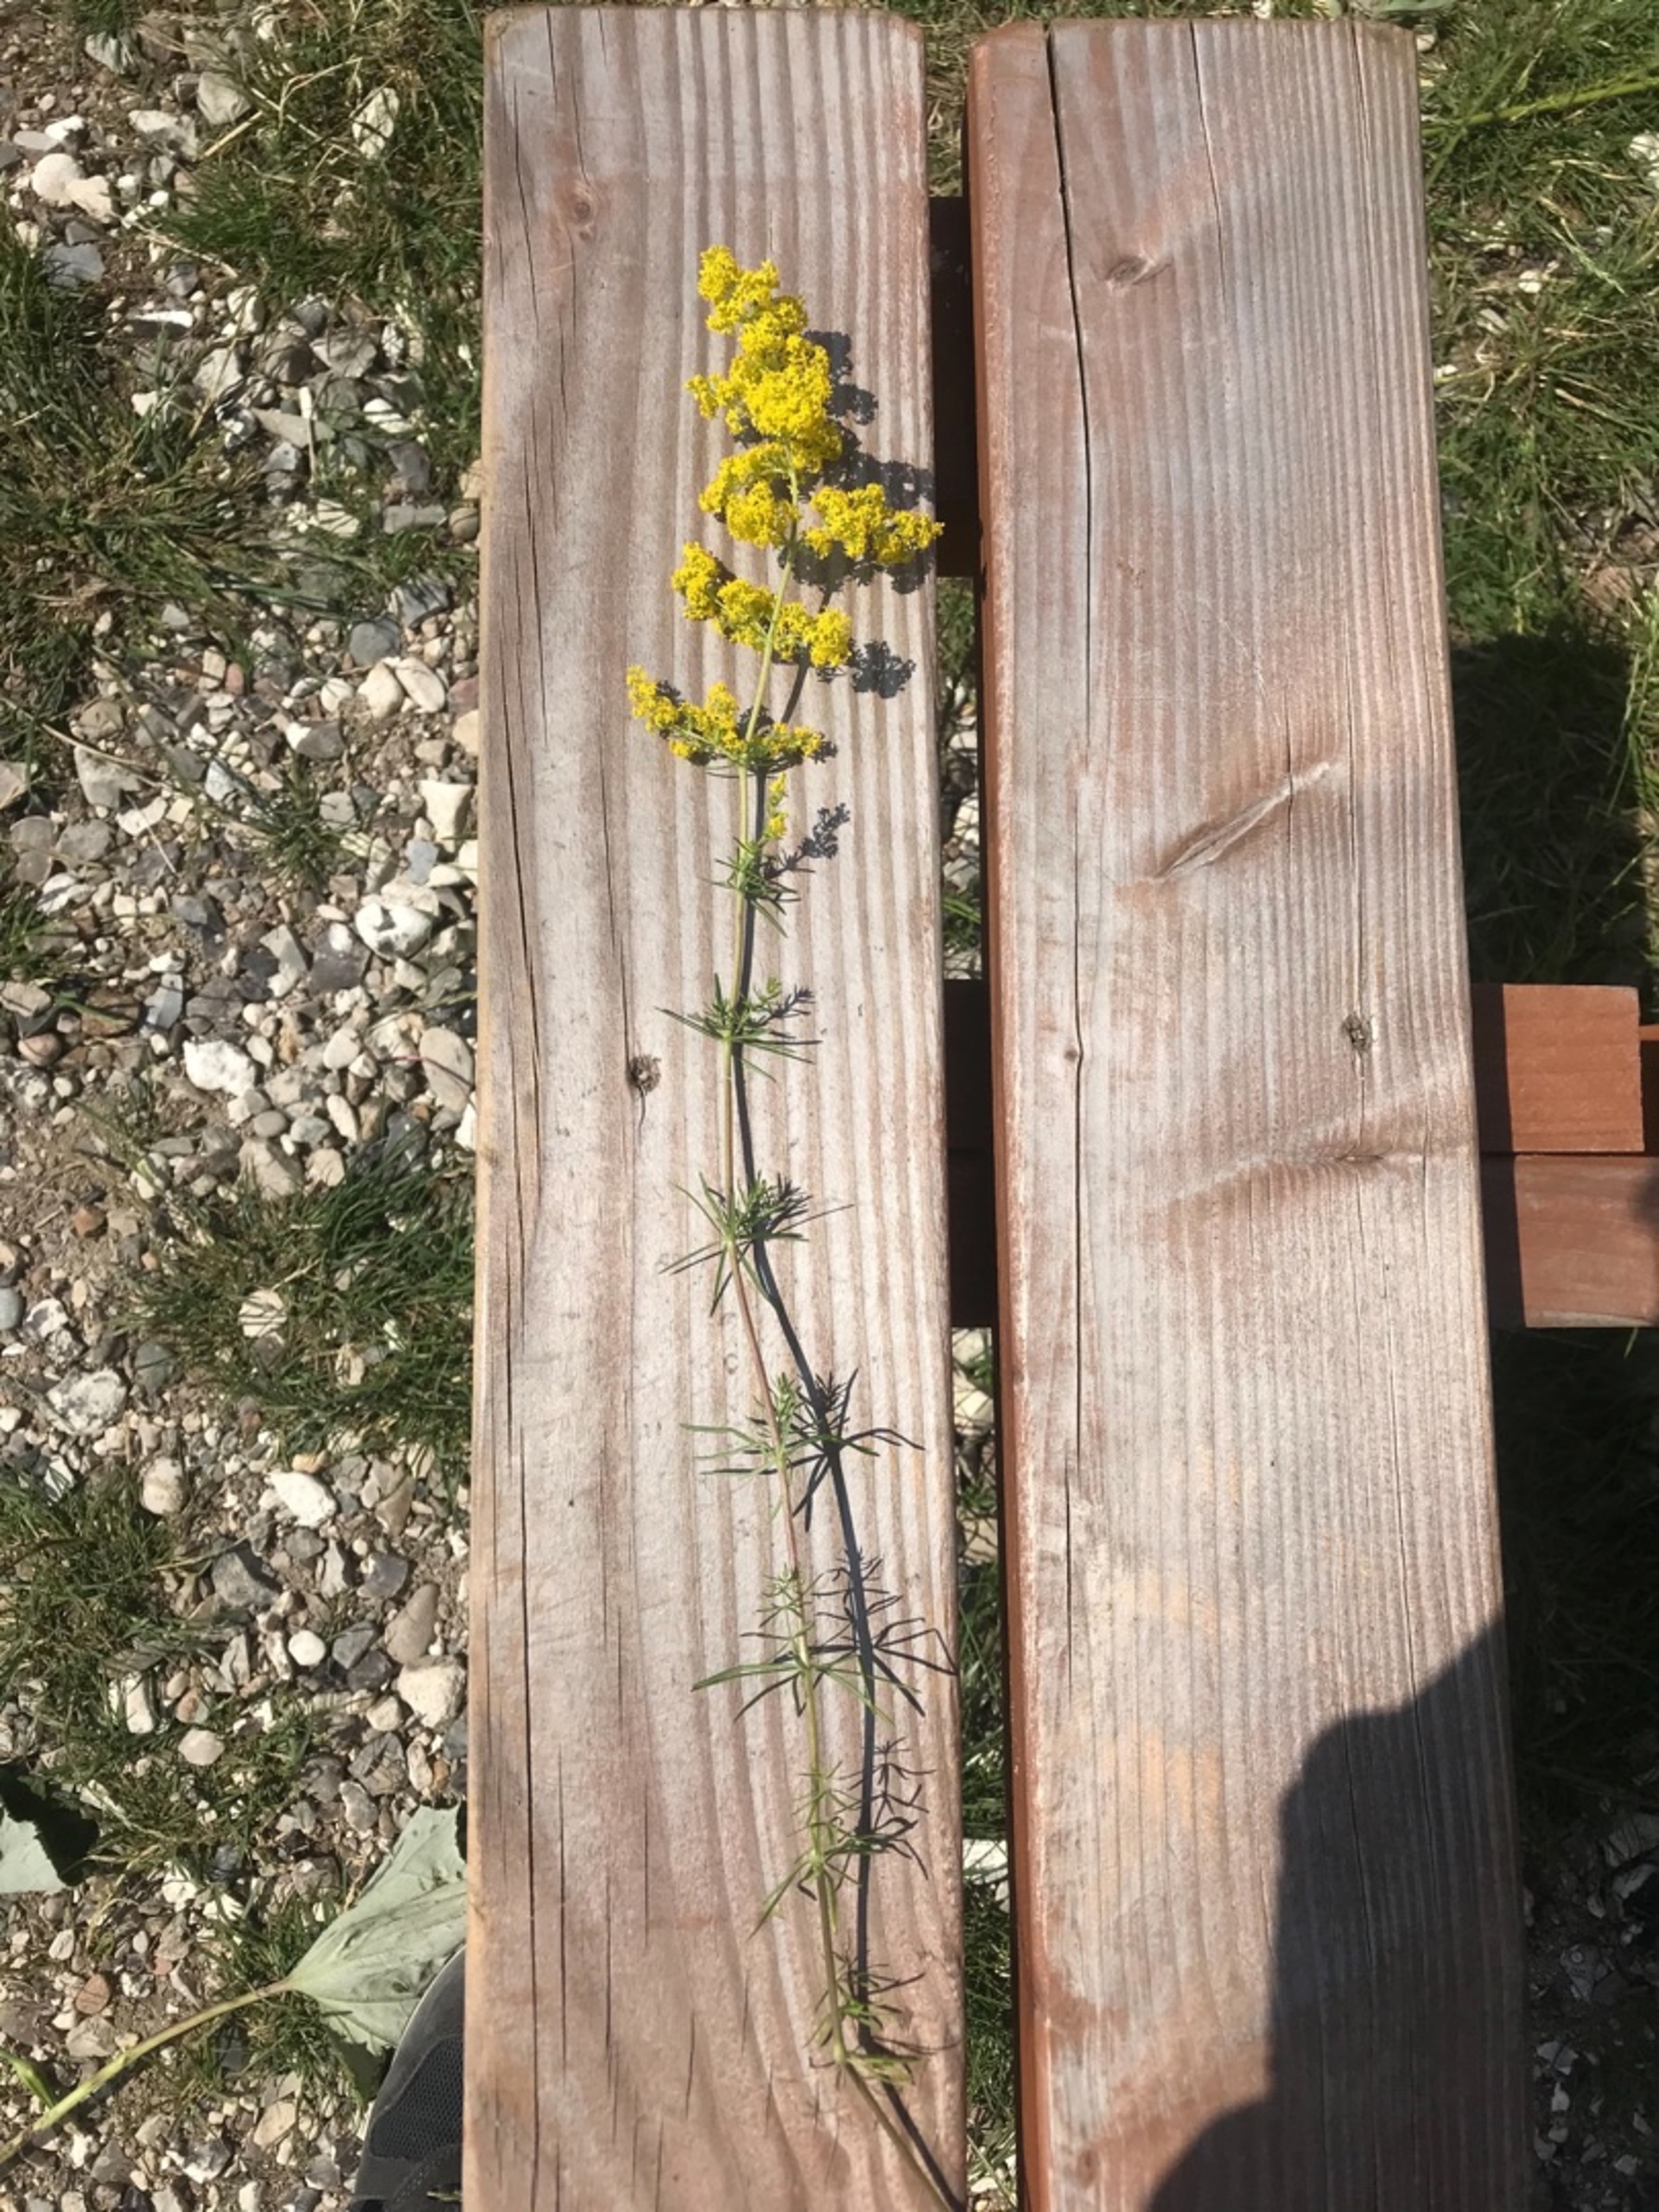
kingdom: Plantae
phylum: Tracheophyta
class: Magnoliopsida
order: Gentianales
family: Rubiaceae
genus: Galium
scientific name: Galium verum
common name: Gul snerre
